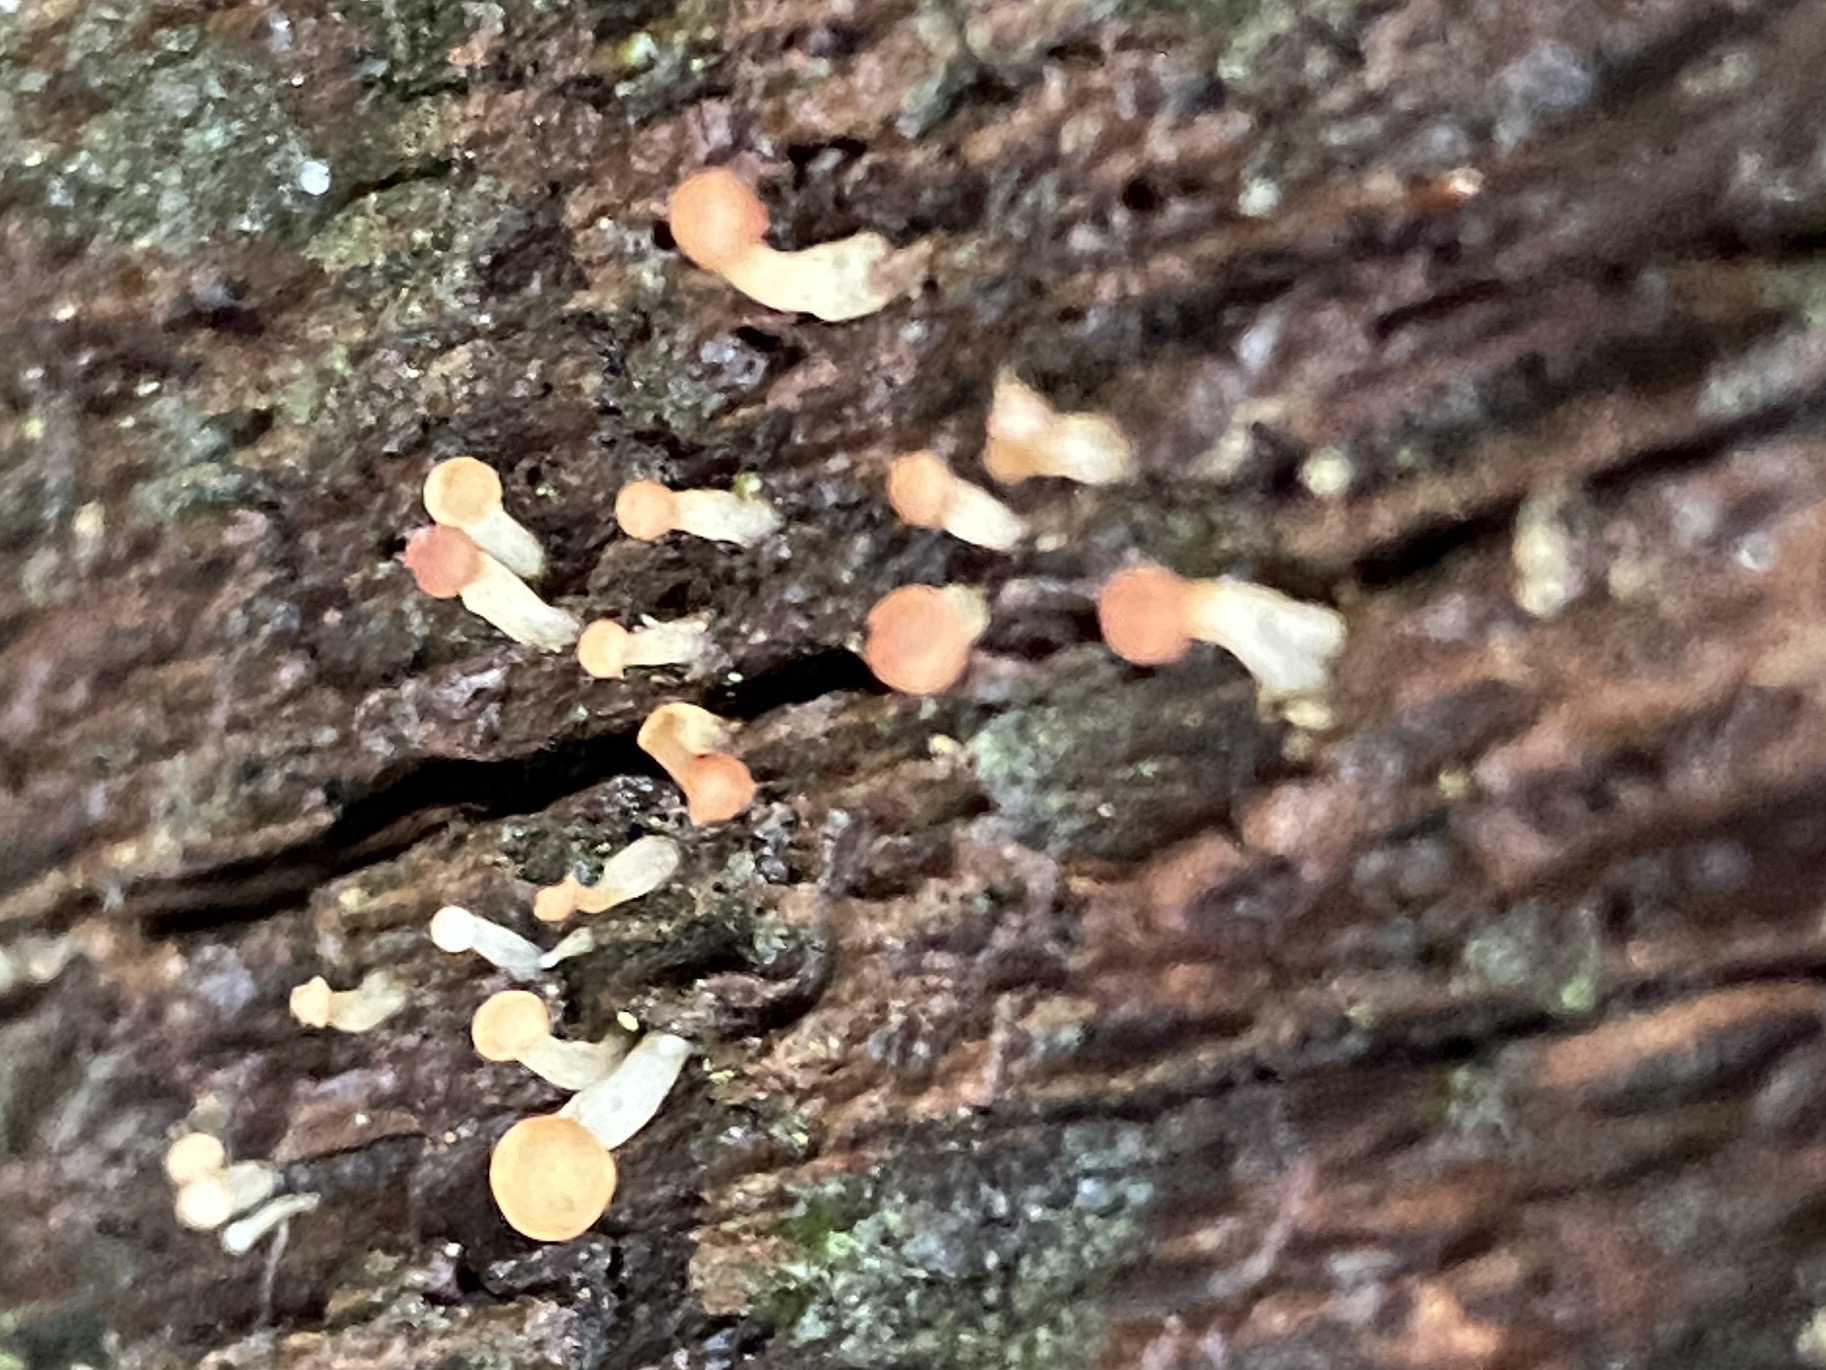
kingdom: Fungi
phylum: Ascomycota
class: Leotiomycetes
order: Helotiales
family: Tricladiaceae
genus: Cudoniella
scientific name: Cudoniella acicularis
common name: ege-dyndskive
